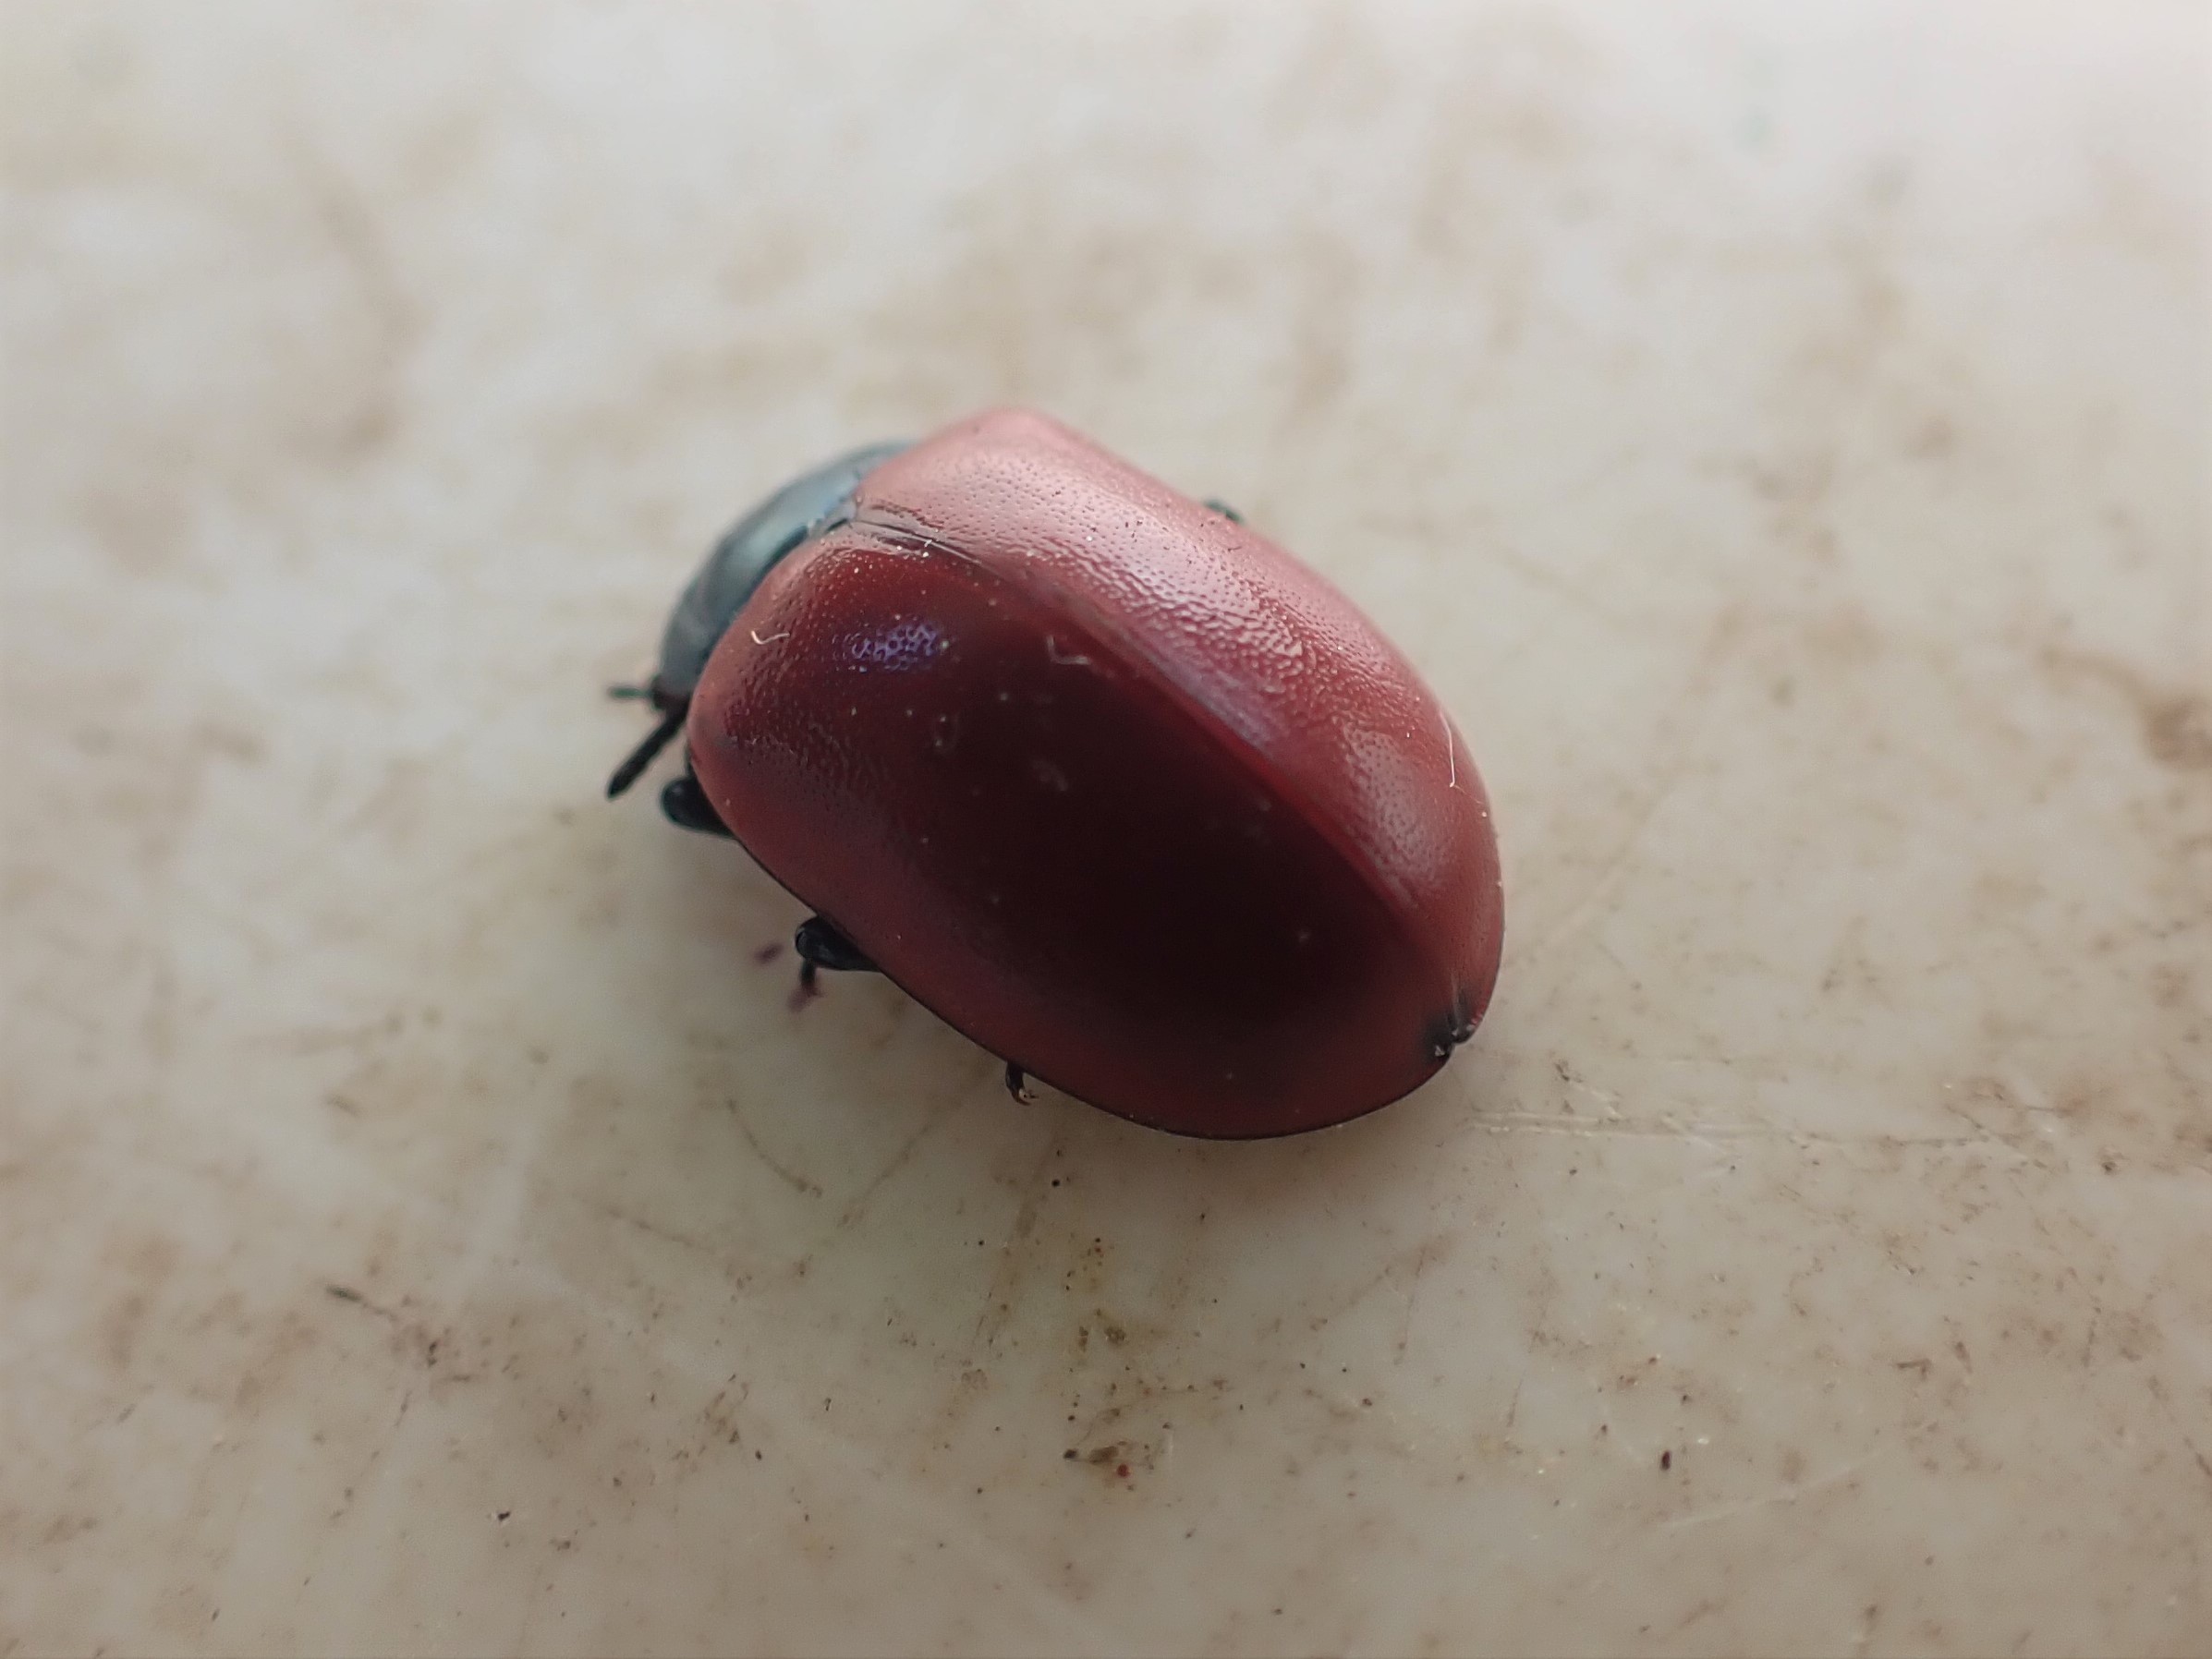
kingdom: Animalia
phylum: Arthropoda
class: Insecta
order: Coleoptera
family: Chrysomelidae
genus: Chrysomela
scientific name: Chrysomela populi
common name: Poppelbladbille
